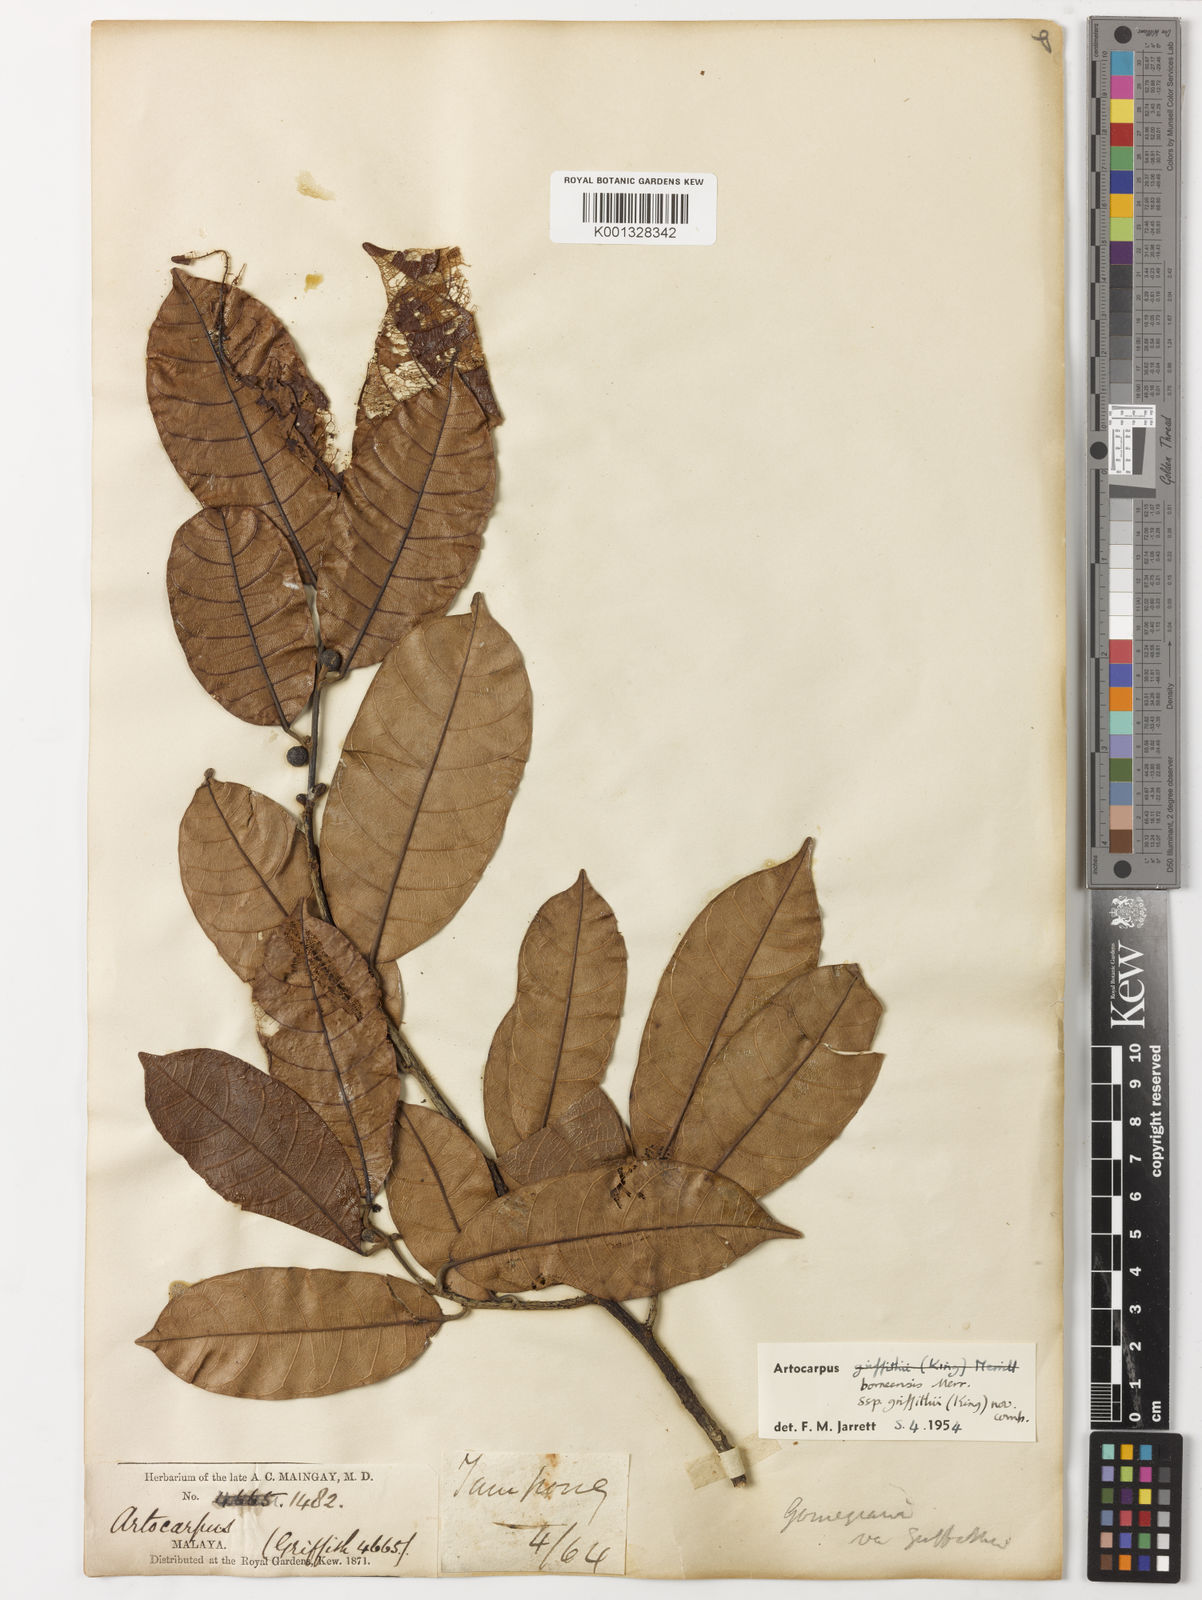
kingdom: Plantae
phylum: Tracheophyta
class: Magnoliopsida
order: Rosales
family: Moraceae
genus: Artocarpus
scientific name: Artocarpus lamellosus
